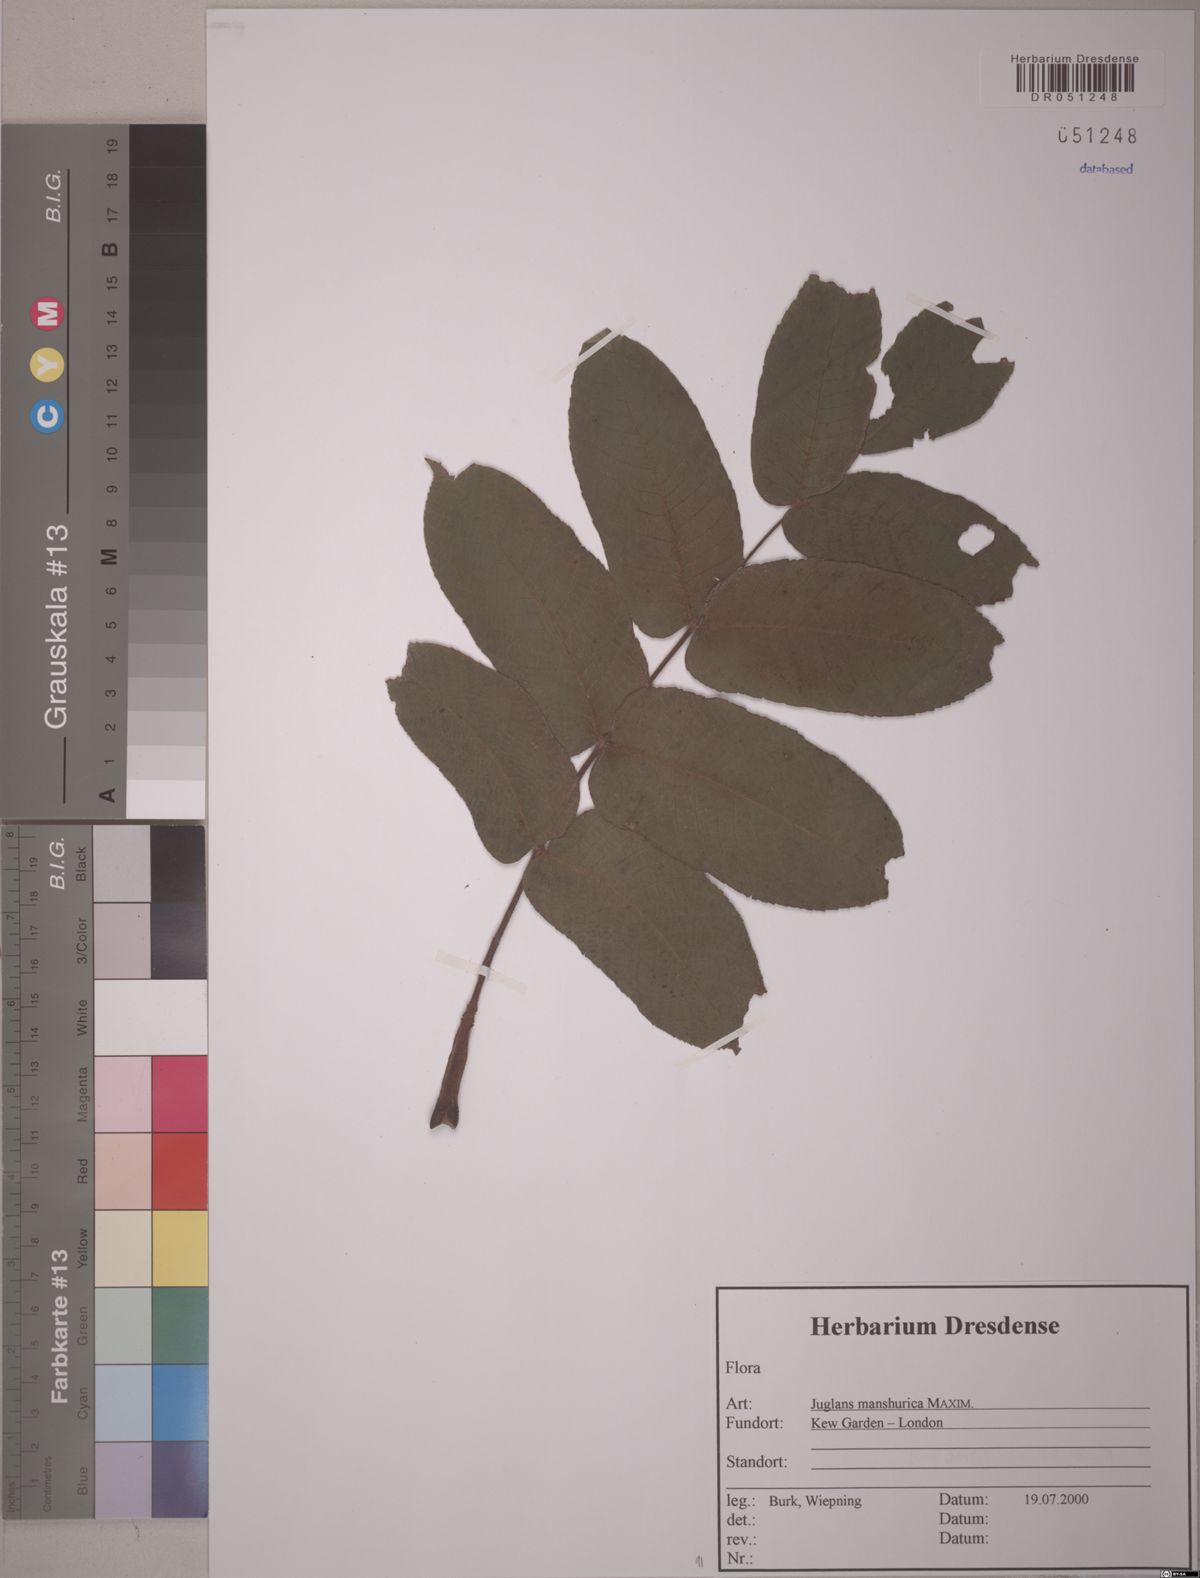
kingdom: Plantae
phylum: Tracheophyta
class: Magnoliopsida
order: Fagales
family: Juglandaceae
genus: Juglans
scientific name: Juglans mandshurica
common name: Manchurian walnut
